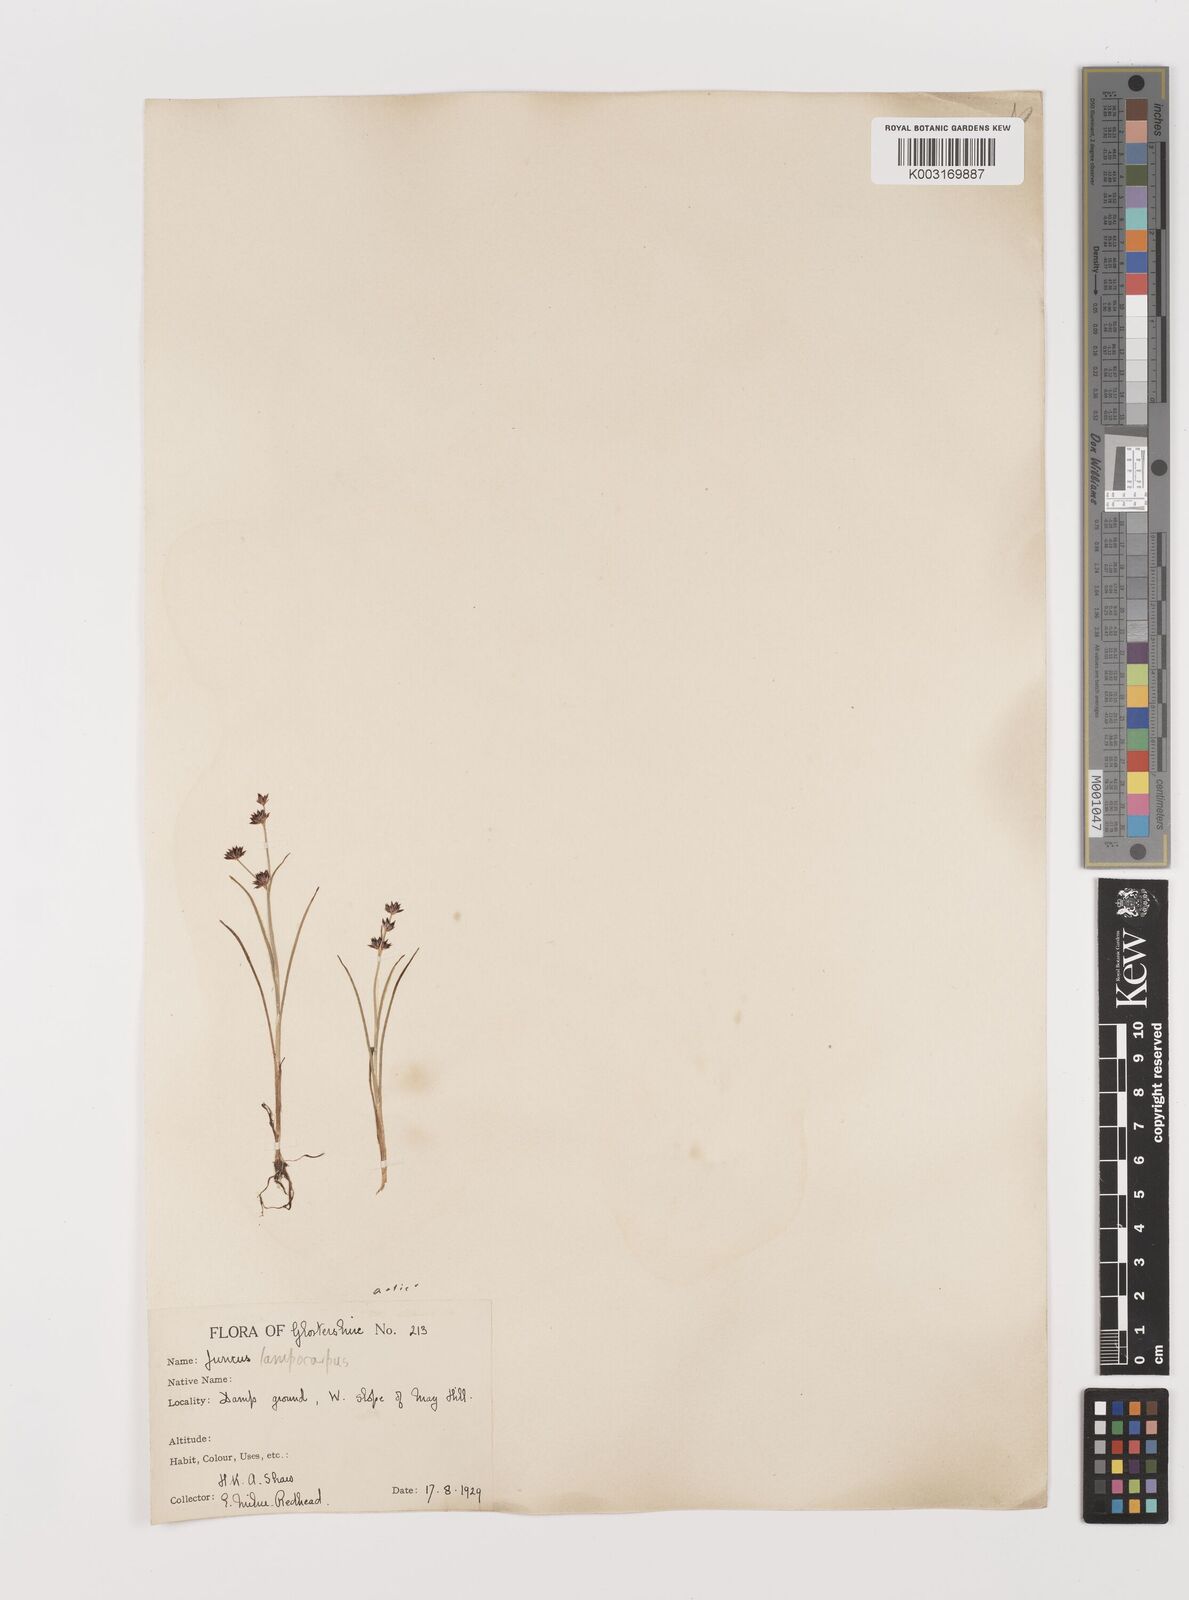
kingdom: Plantae
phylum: Tracheophyta
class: Liliopsida
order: Poales
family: Juncaceae
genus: Juncus
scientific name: Juncus articulatus
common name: Jointed rush
